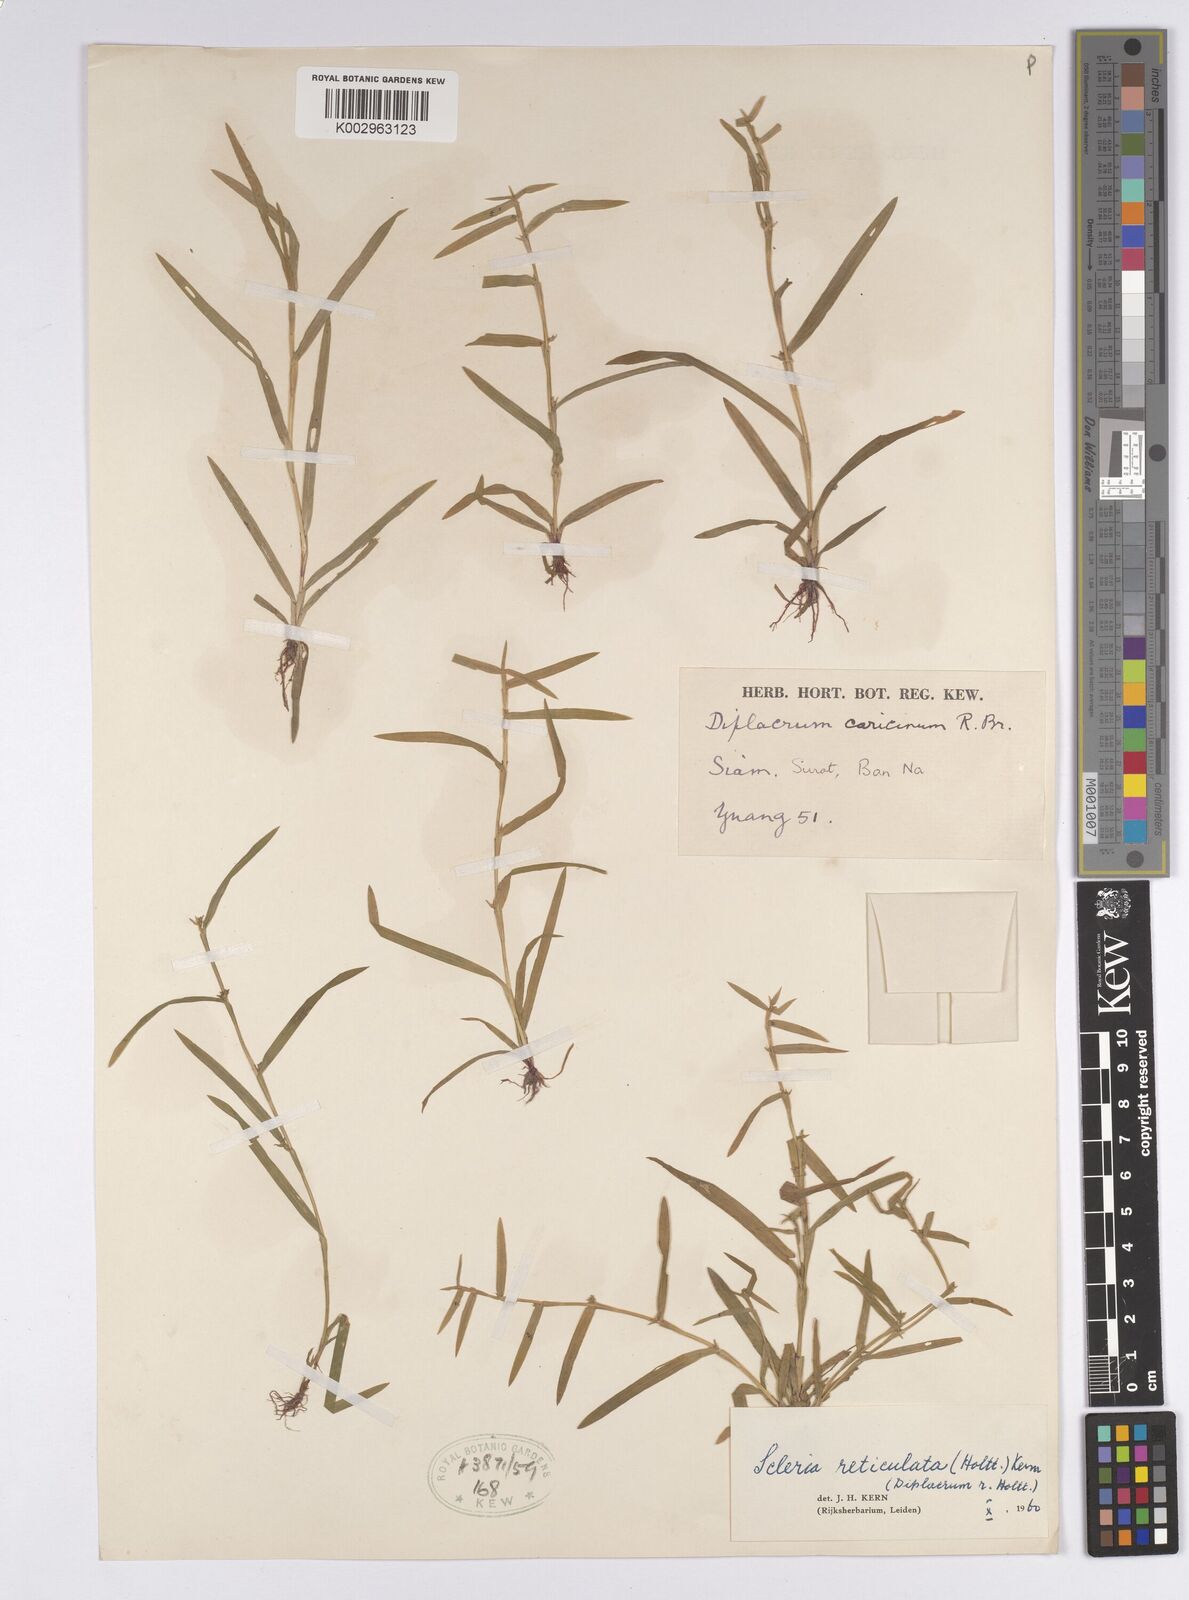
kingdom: Plantae
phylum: Tracheophyta
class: Liliopsida
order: Poales
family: Cyperaceae
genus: Diplacrum
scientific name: Diplacrum caricinum
